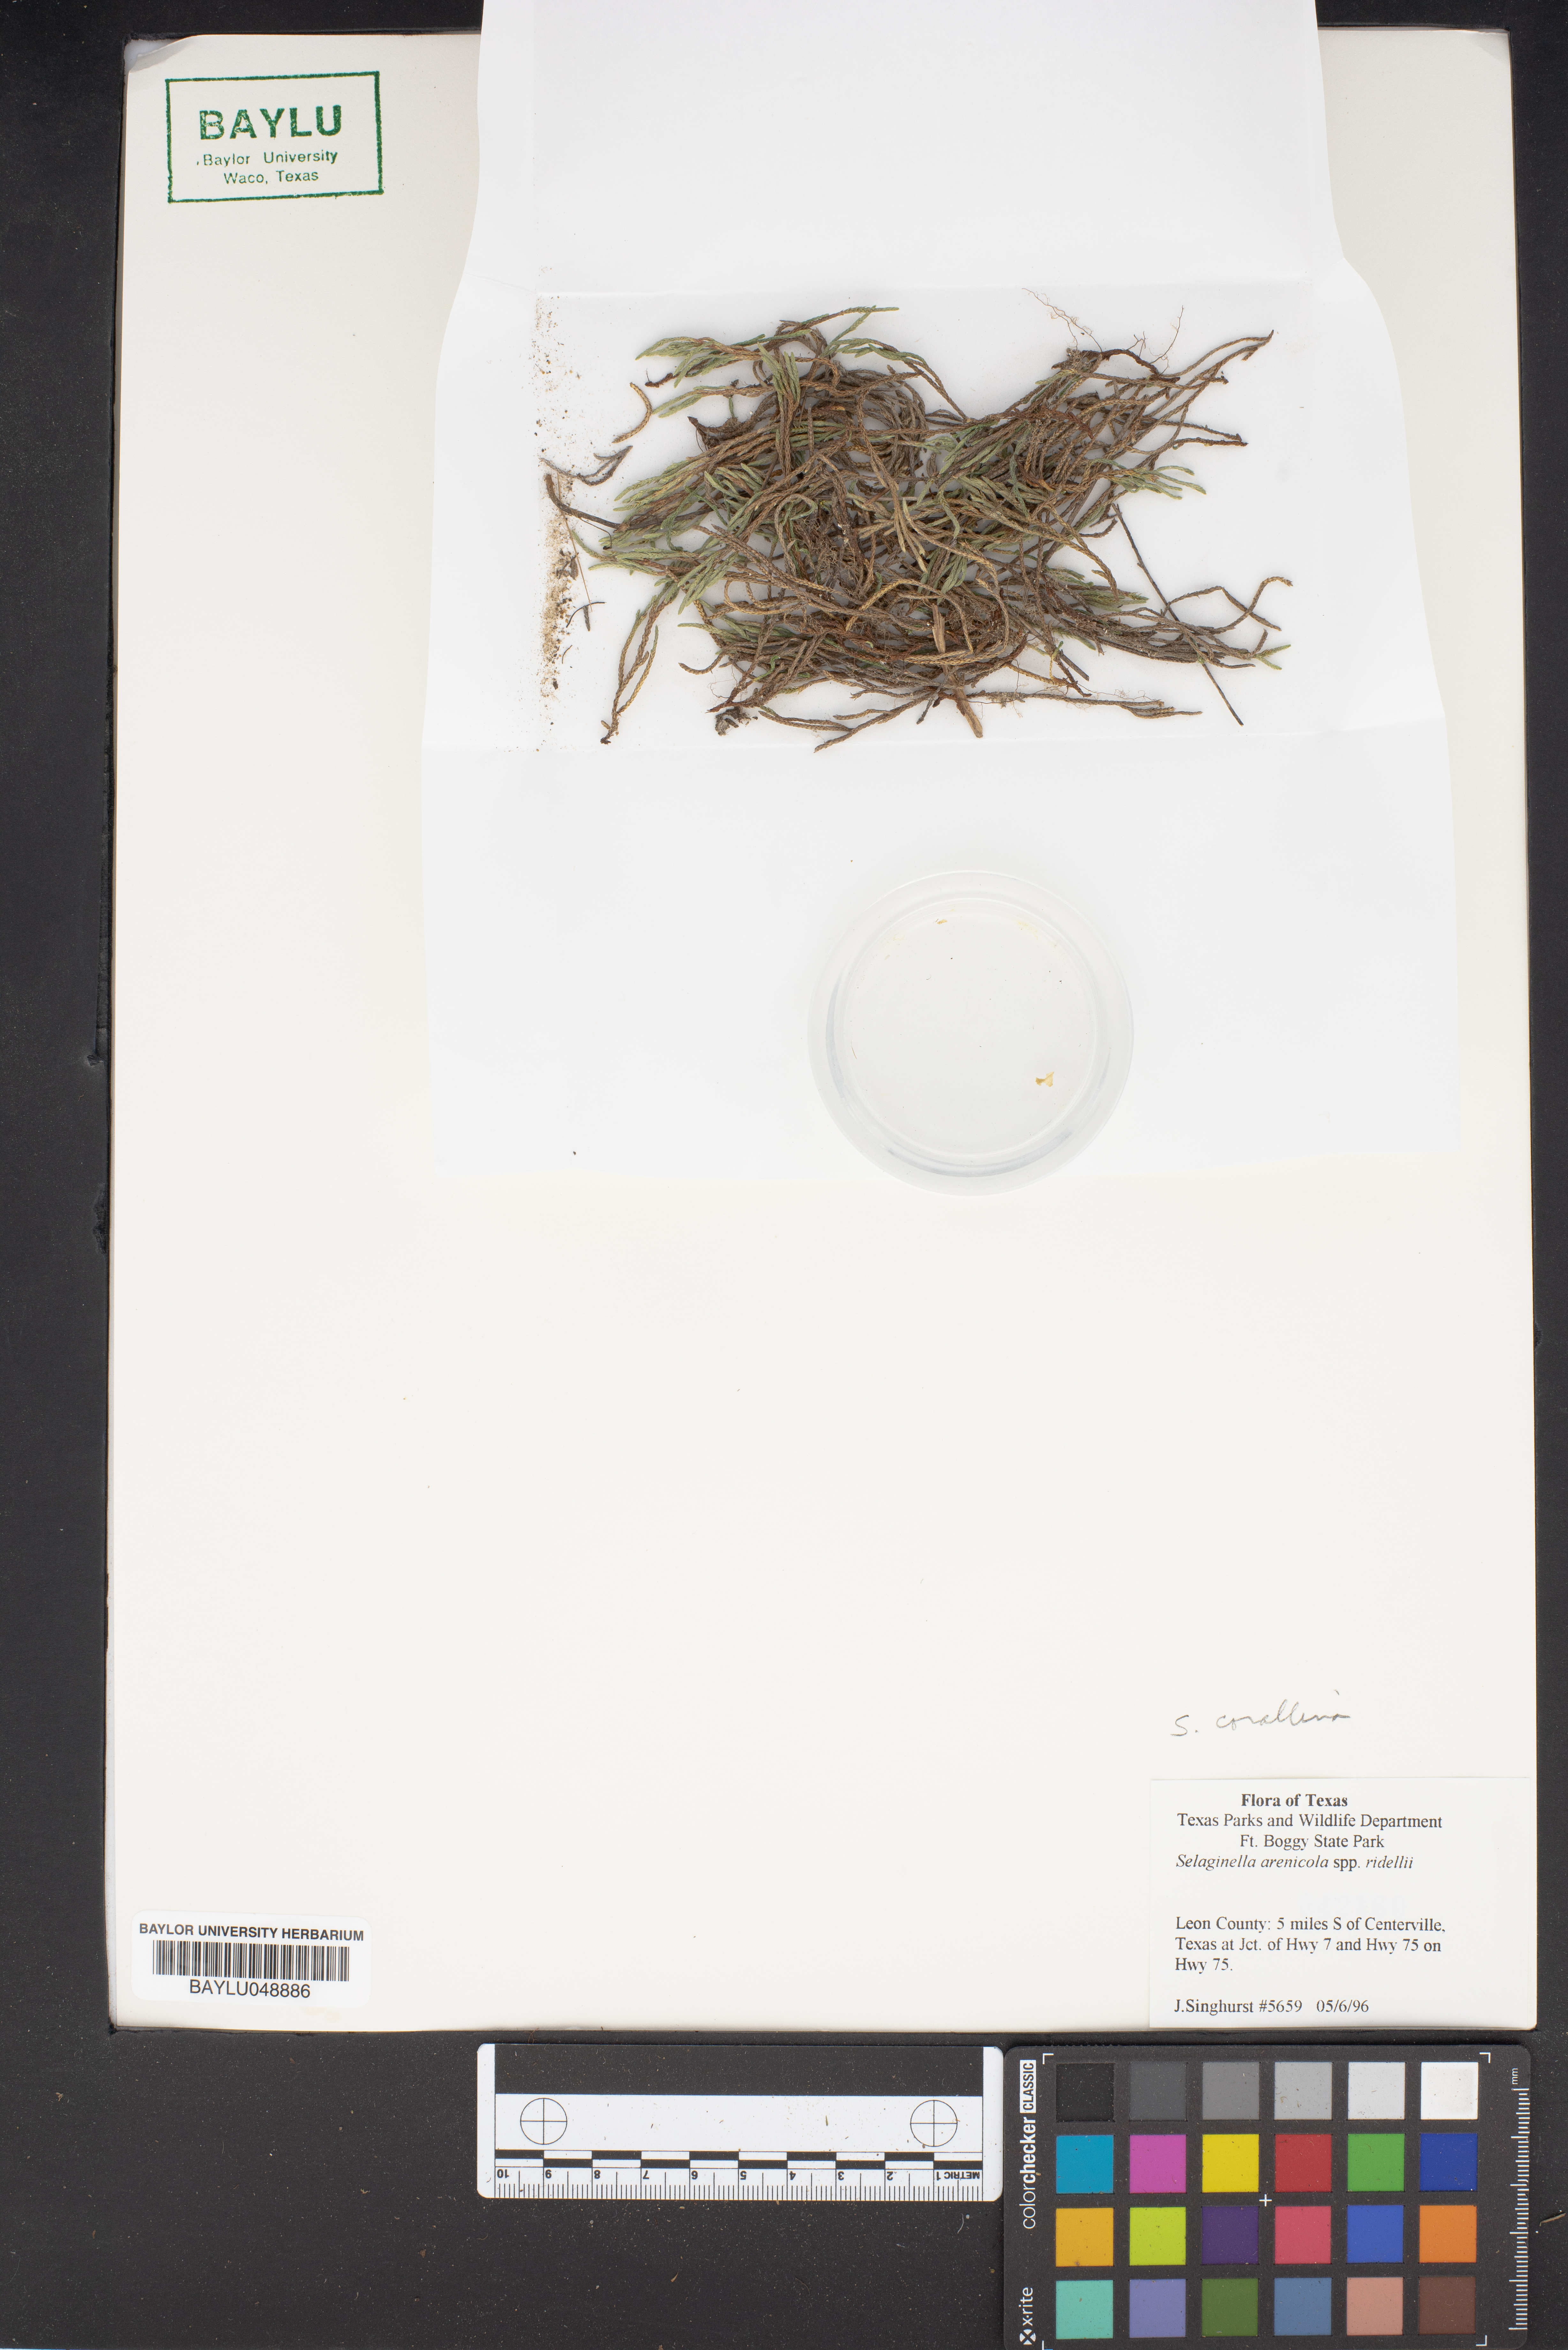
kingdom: Plantae
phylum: Tracheophyta
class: Lycopodiopsida
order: Selaginellales
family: Selaginellaceae
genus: Selaginella
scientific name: Selaginella arenicola
